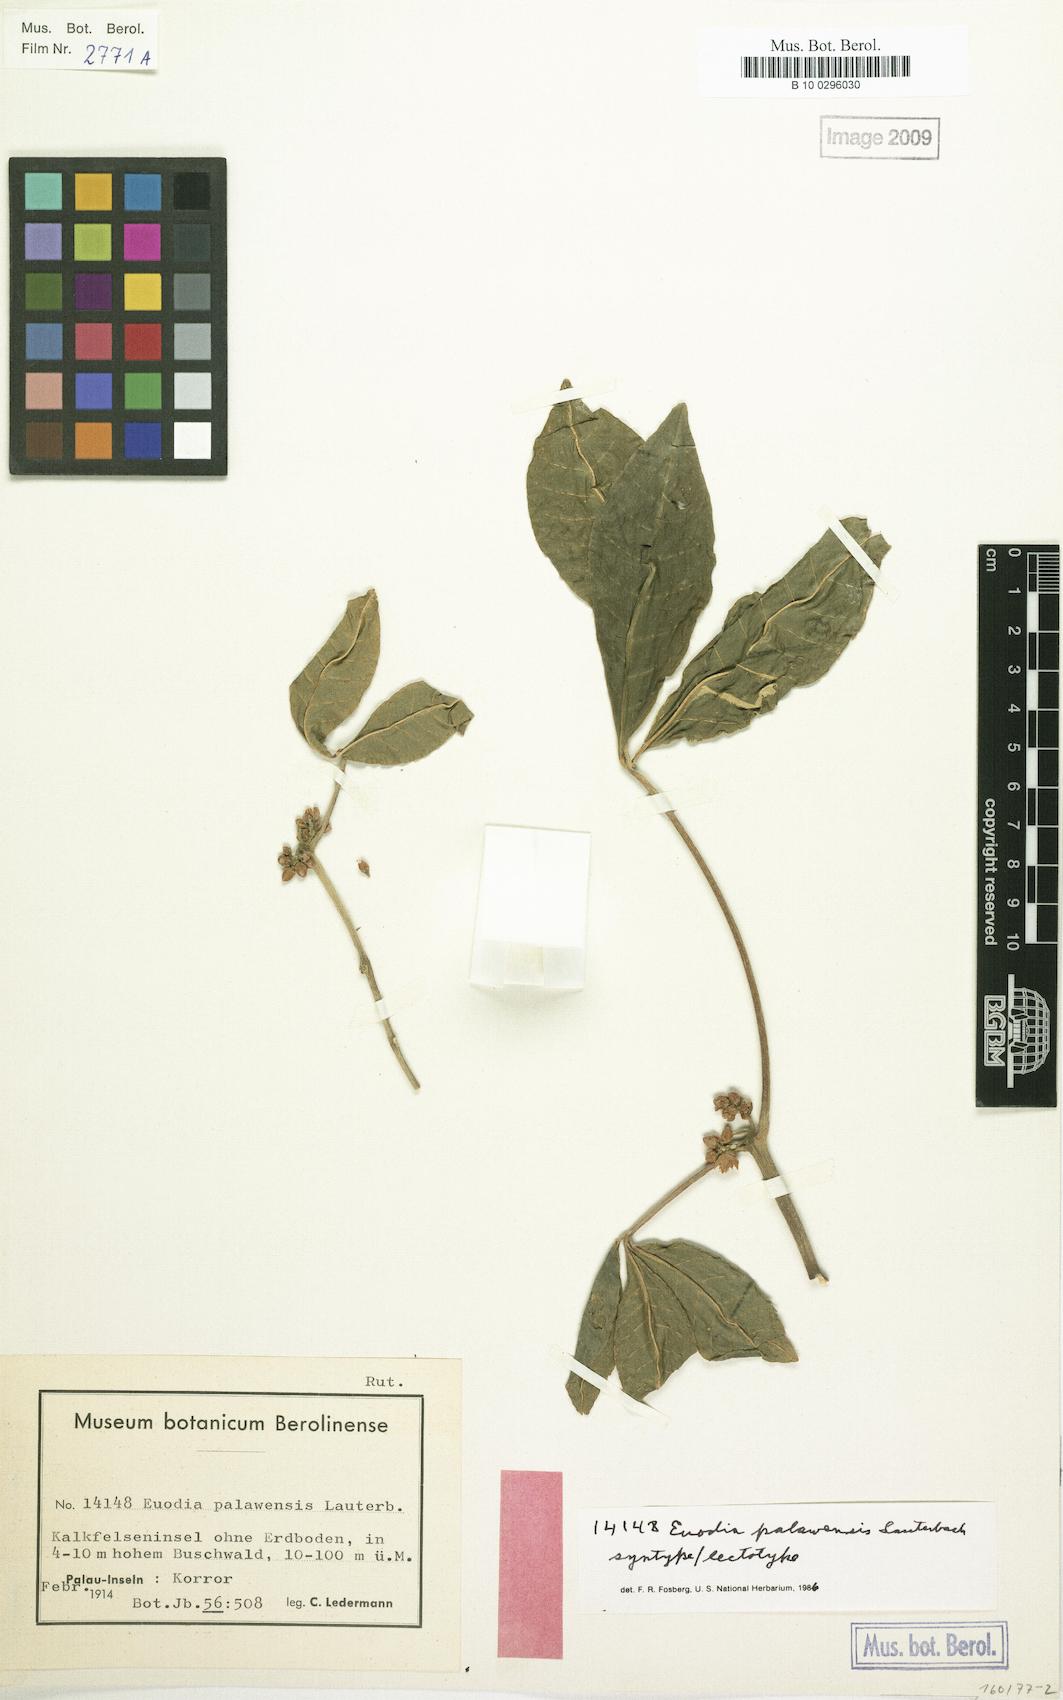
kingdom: Plantae
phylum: Tracheophyta
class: Magnoliopsida
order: Sapindales
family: Rutaceae
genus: Melicope
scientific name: Melicope palawensis
